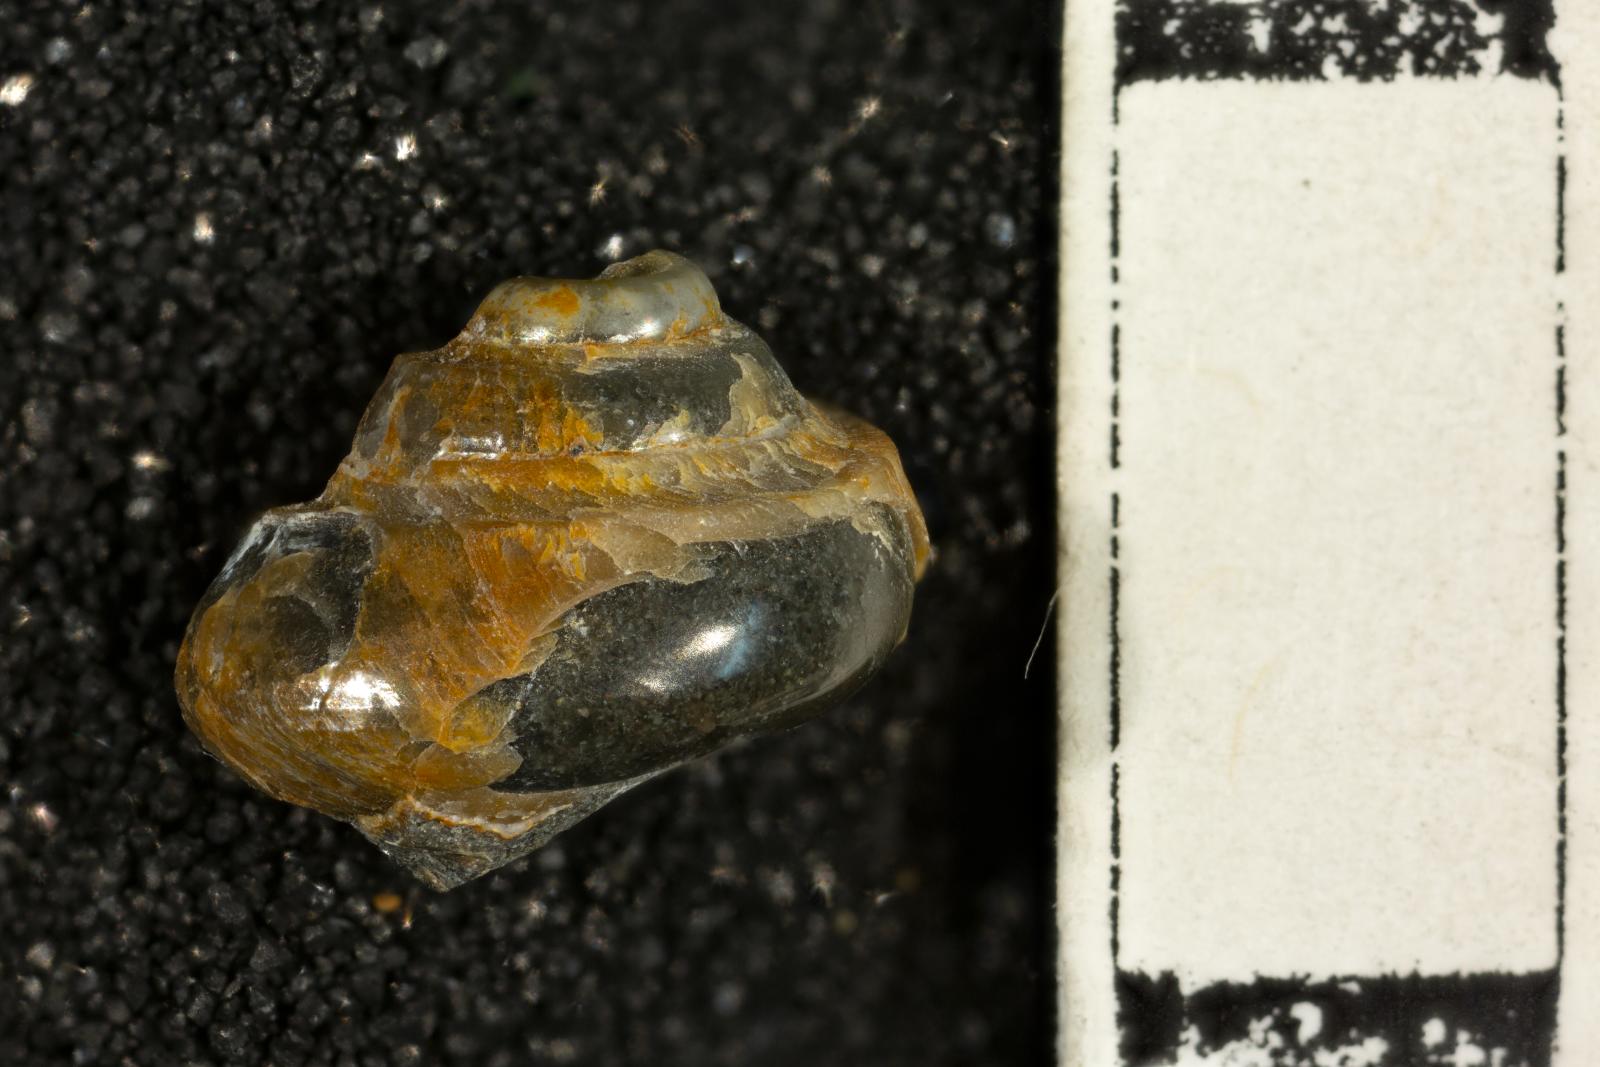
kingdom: Animalia
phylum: Mollusca
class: Bivalvia
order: Ostreida
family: Pteriidae
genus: Atira
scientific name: Atira popenoei
